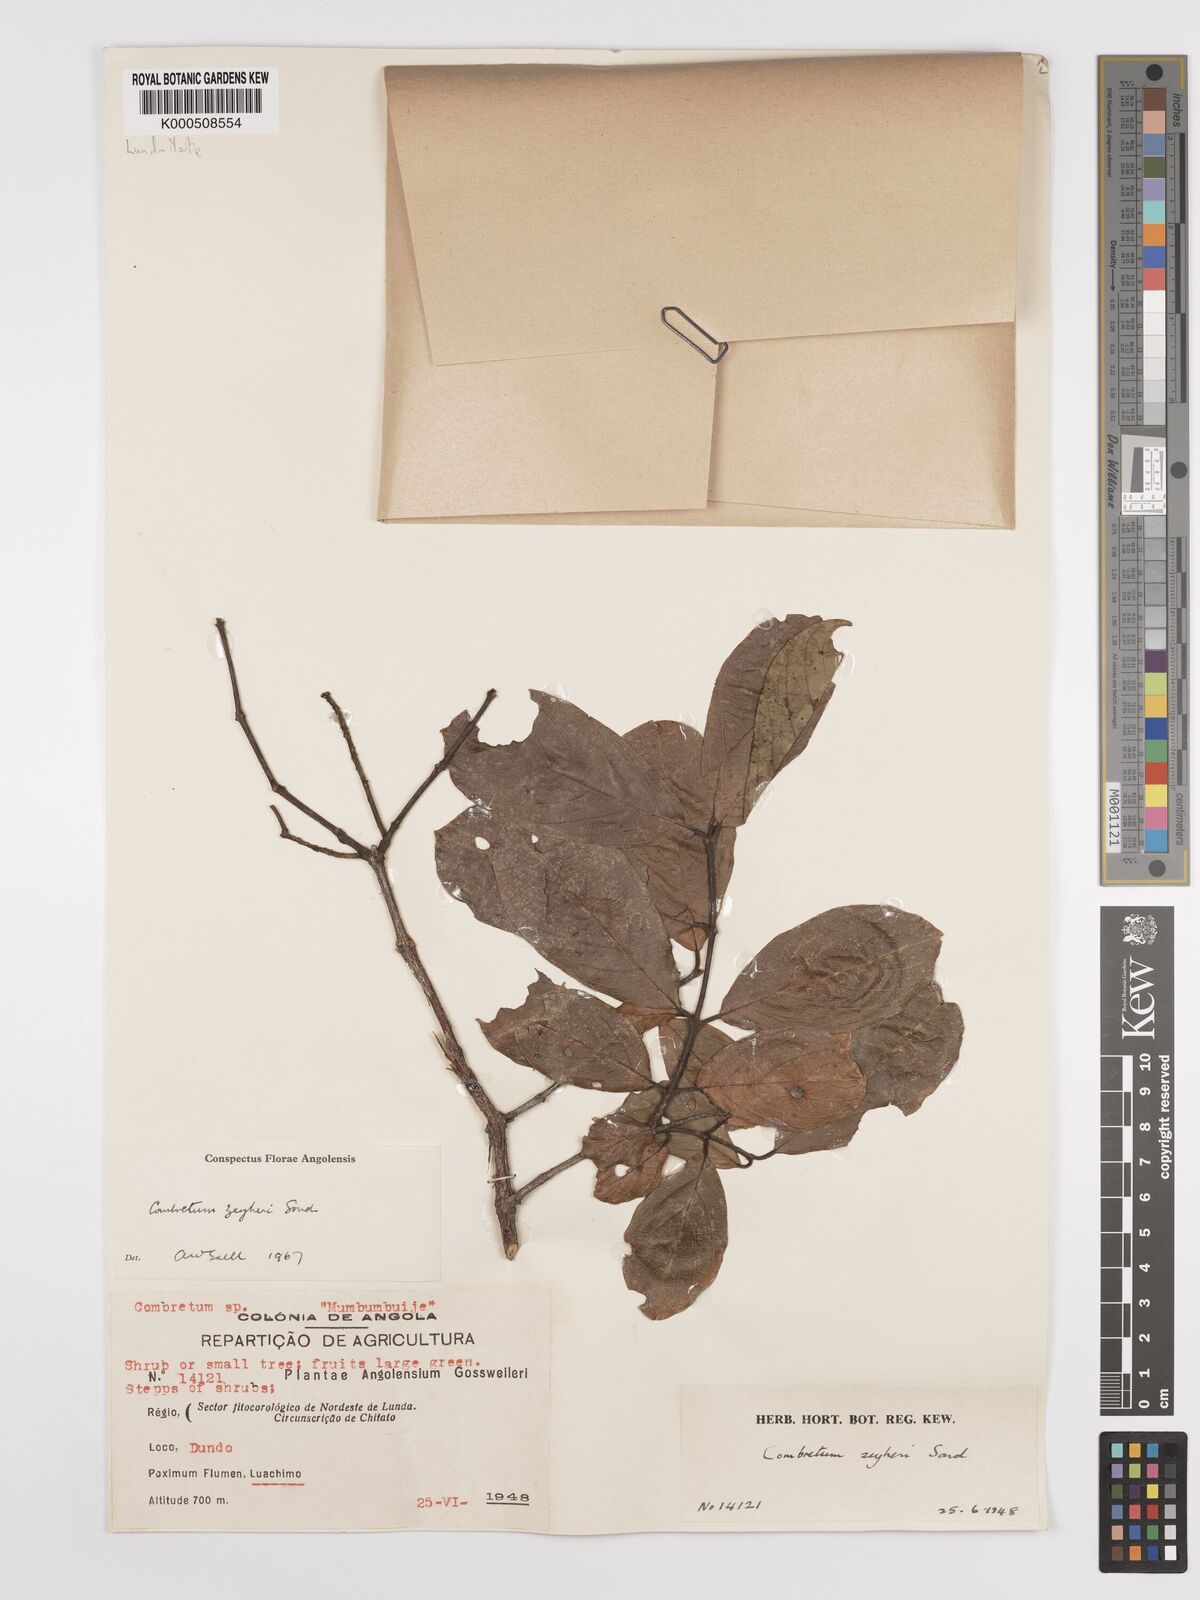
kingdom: Plantae
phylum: Tracheophyta
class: Magnoliopsida
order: Myrtales
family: Combretaceae
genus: Combretum
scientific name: Combretum zeyheri
